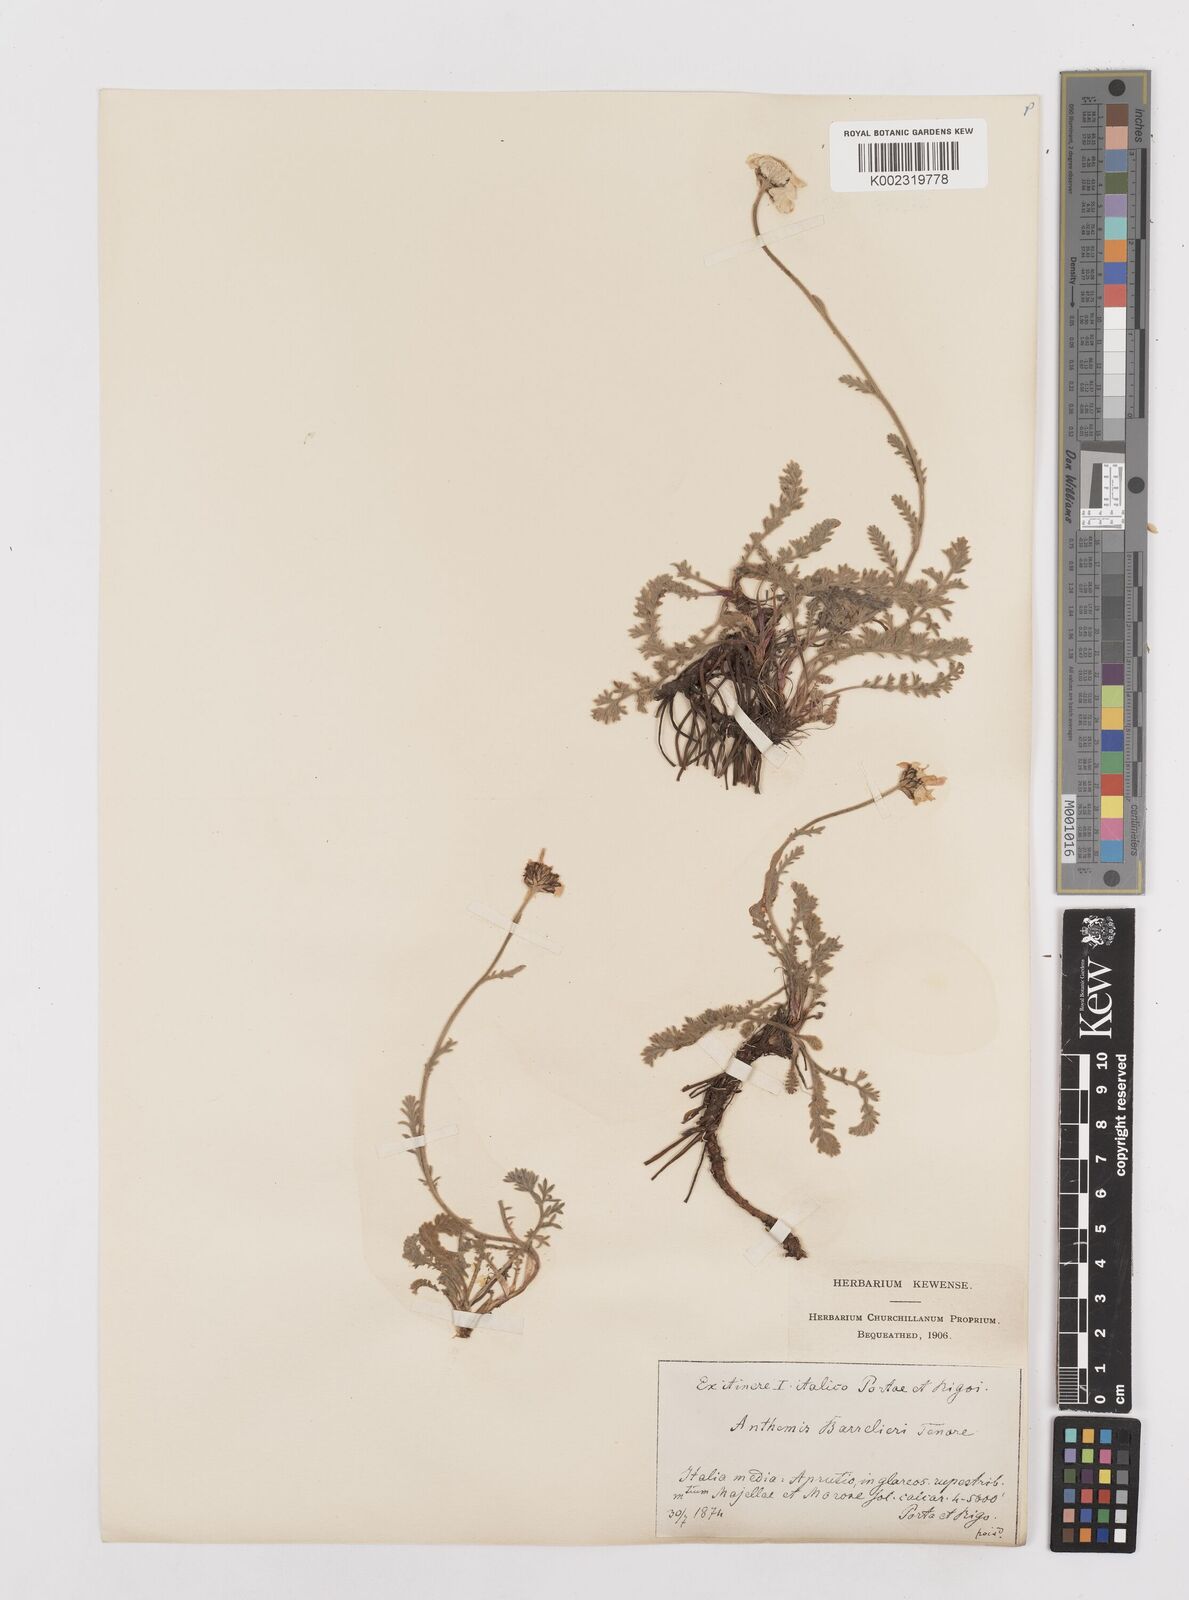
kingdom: Plantae
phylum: Tracheophyta
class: Magnoliopsida
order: Asterales
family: Asteraceae
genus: Achillea
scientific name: Achillea barrelieri
